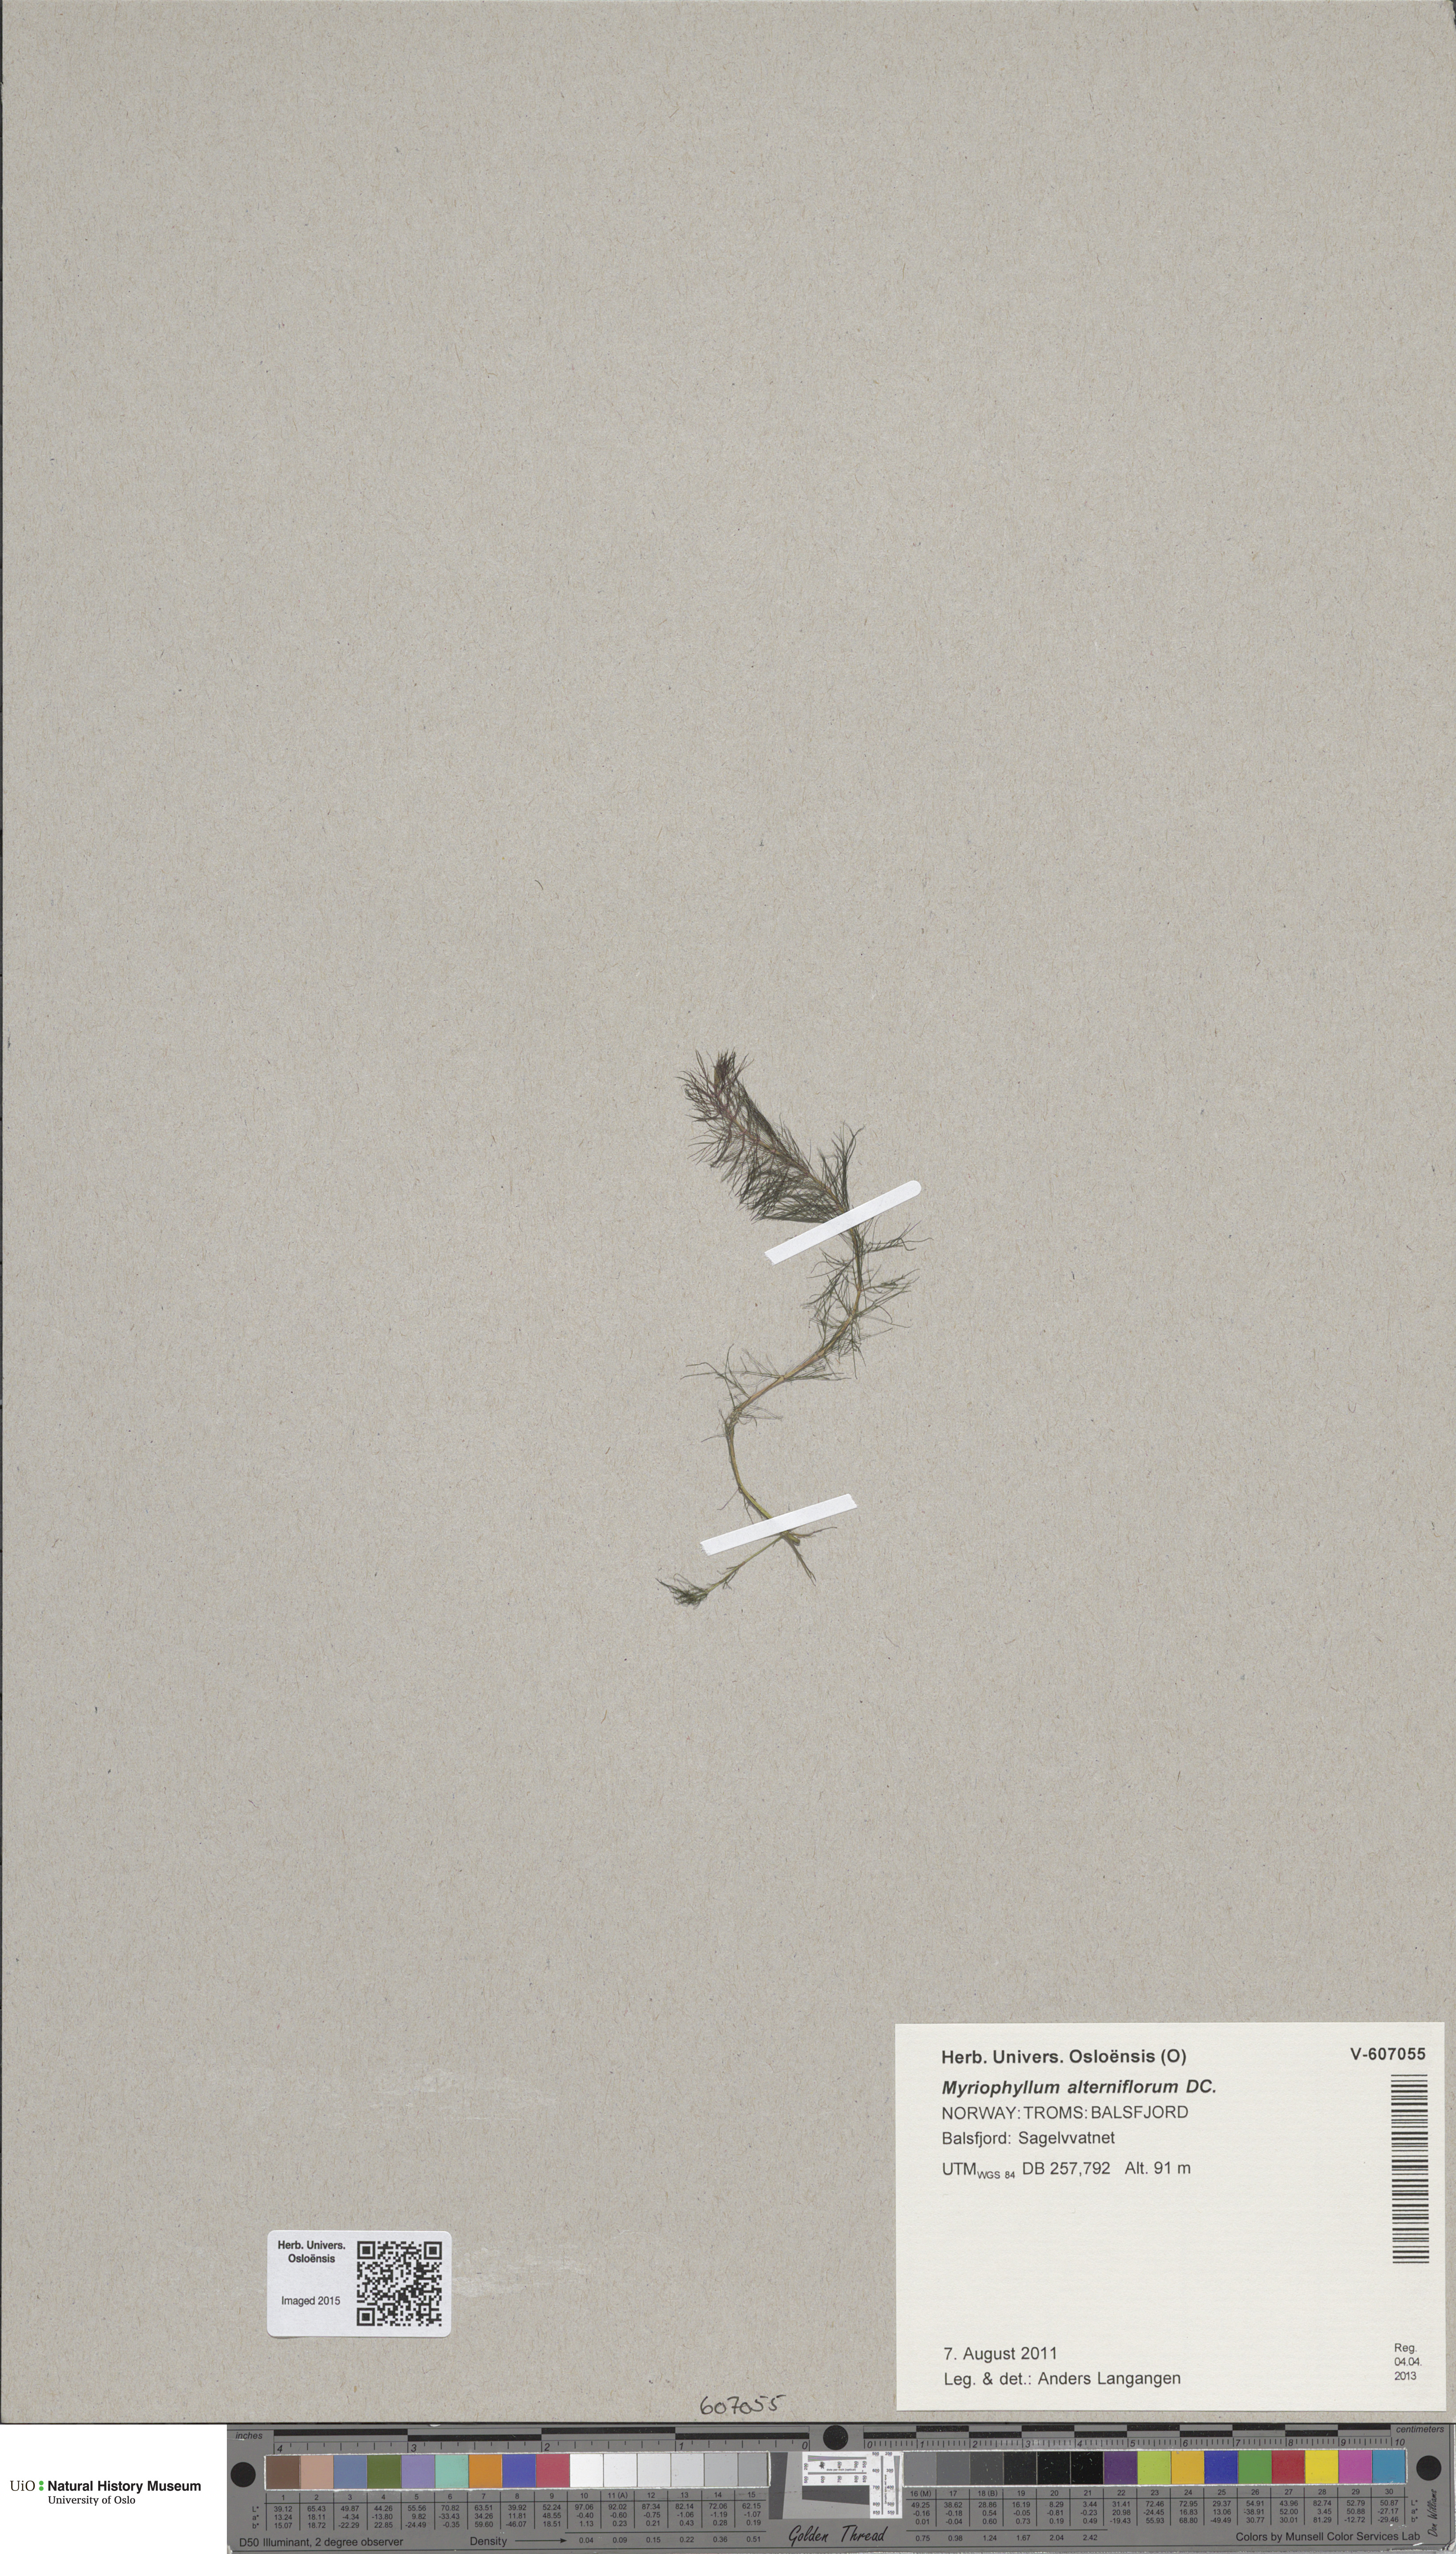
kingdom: Plantae
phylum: Tracheophyta
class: Magnoliopsida
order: Saxifragales
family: Haloragaceae
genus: Myriophyllum
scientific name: Myriophyllum sibiricum
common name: Siberian water-milfoil
